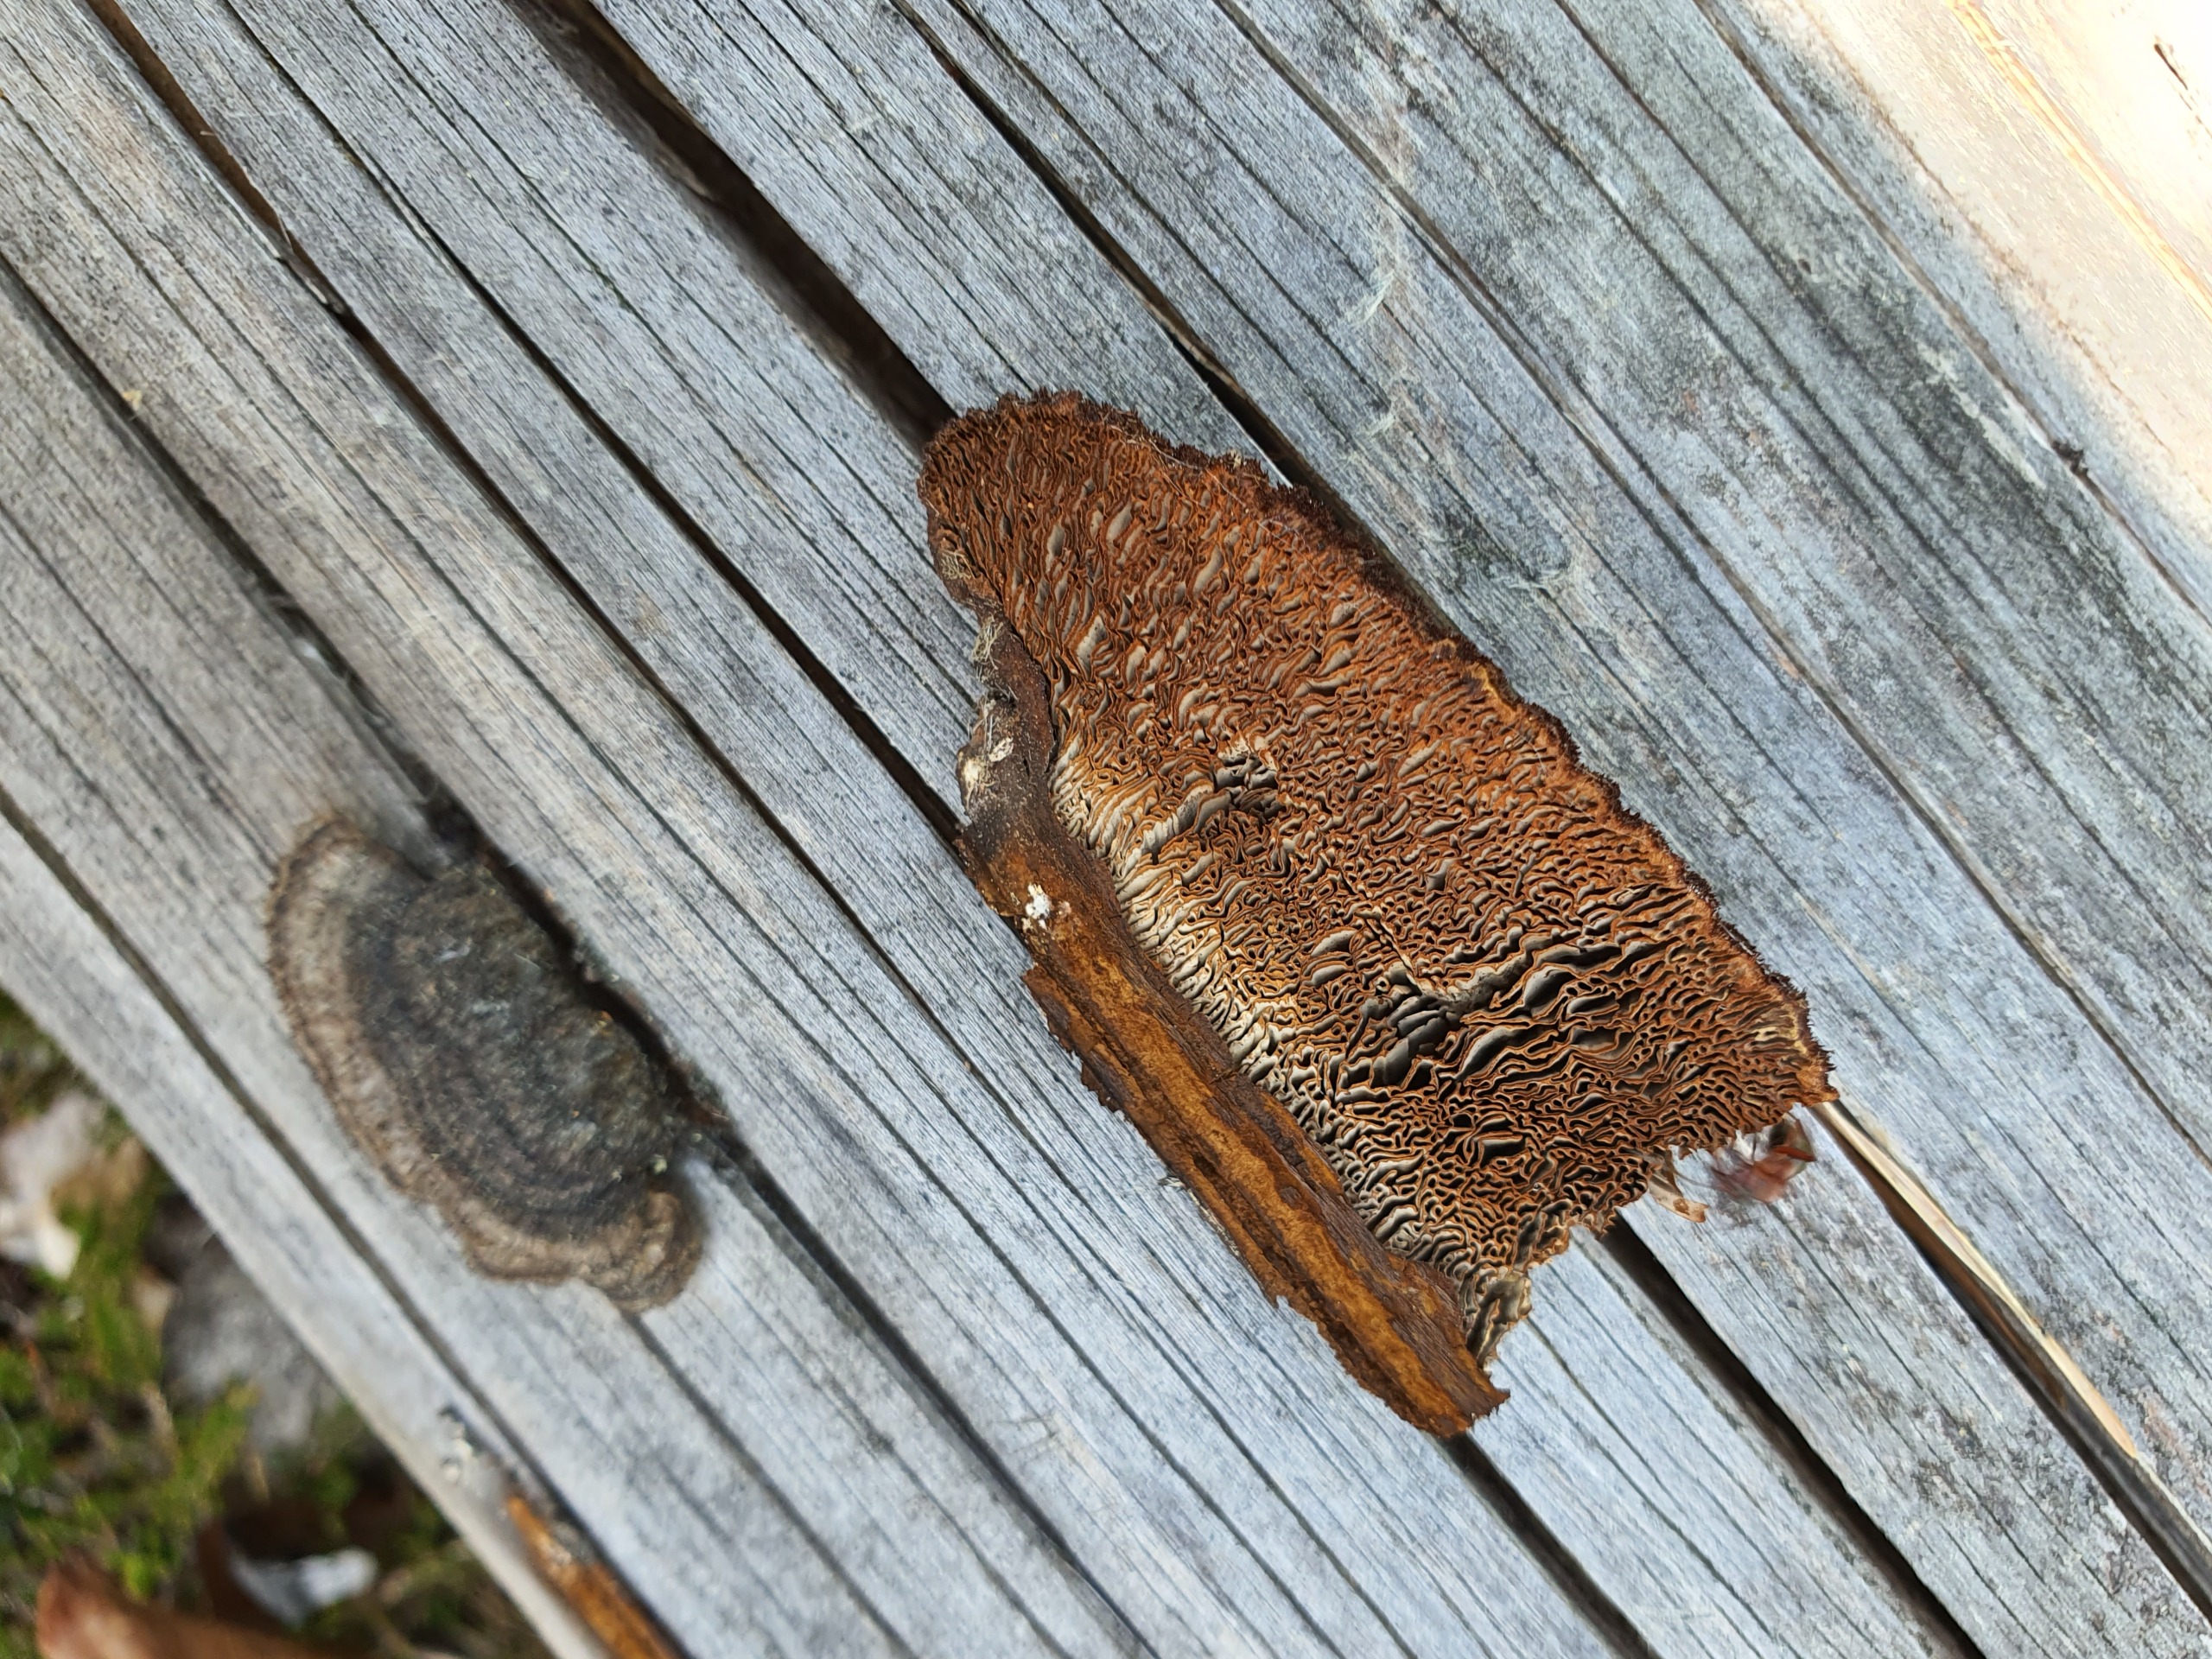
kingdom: Fungi
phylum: Basidiomycota
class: Agaricomycetes
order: Gloeophyllales
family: Gloeophyllaceae
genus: Gloeophyllum
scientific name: Gloeophyllum sepiarium
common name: Fyrre-korkhat
